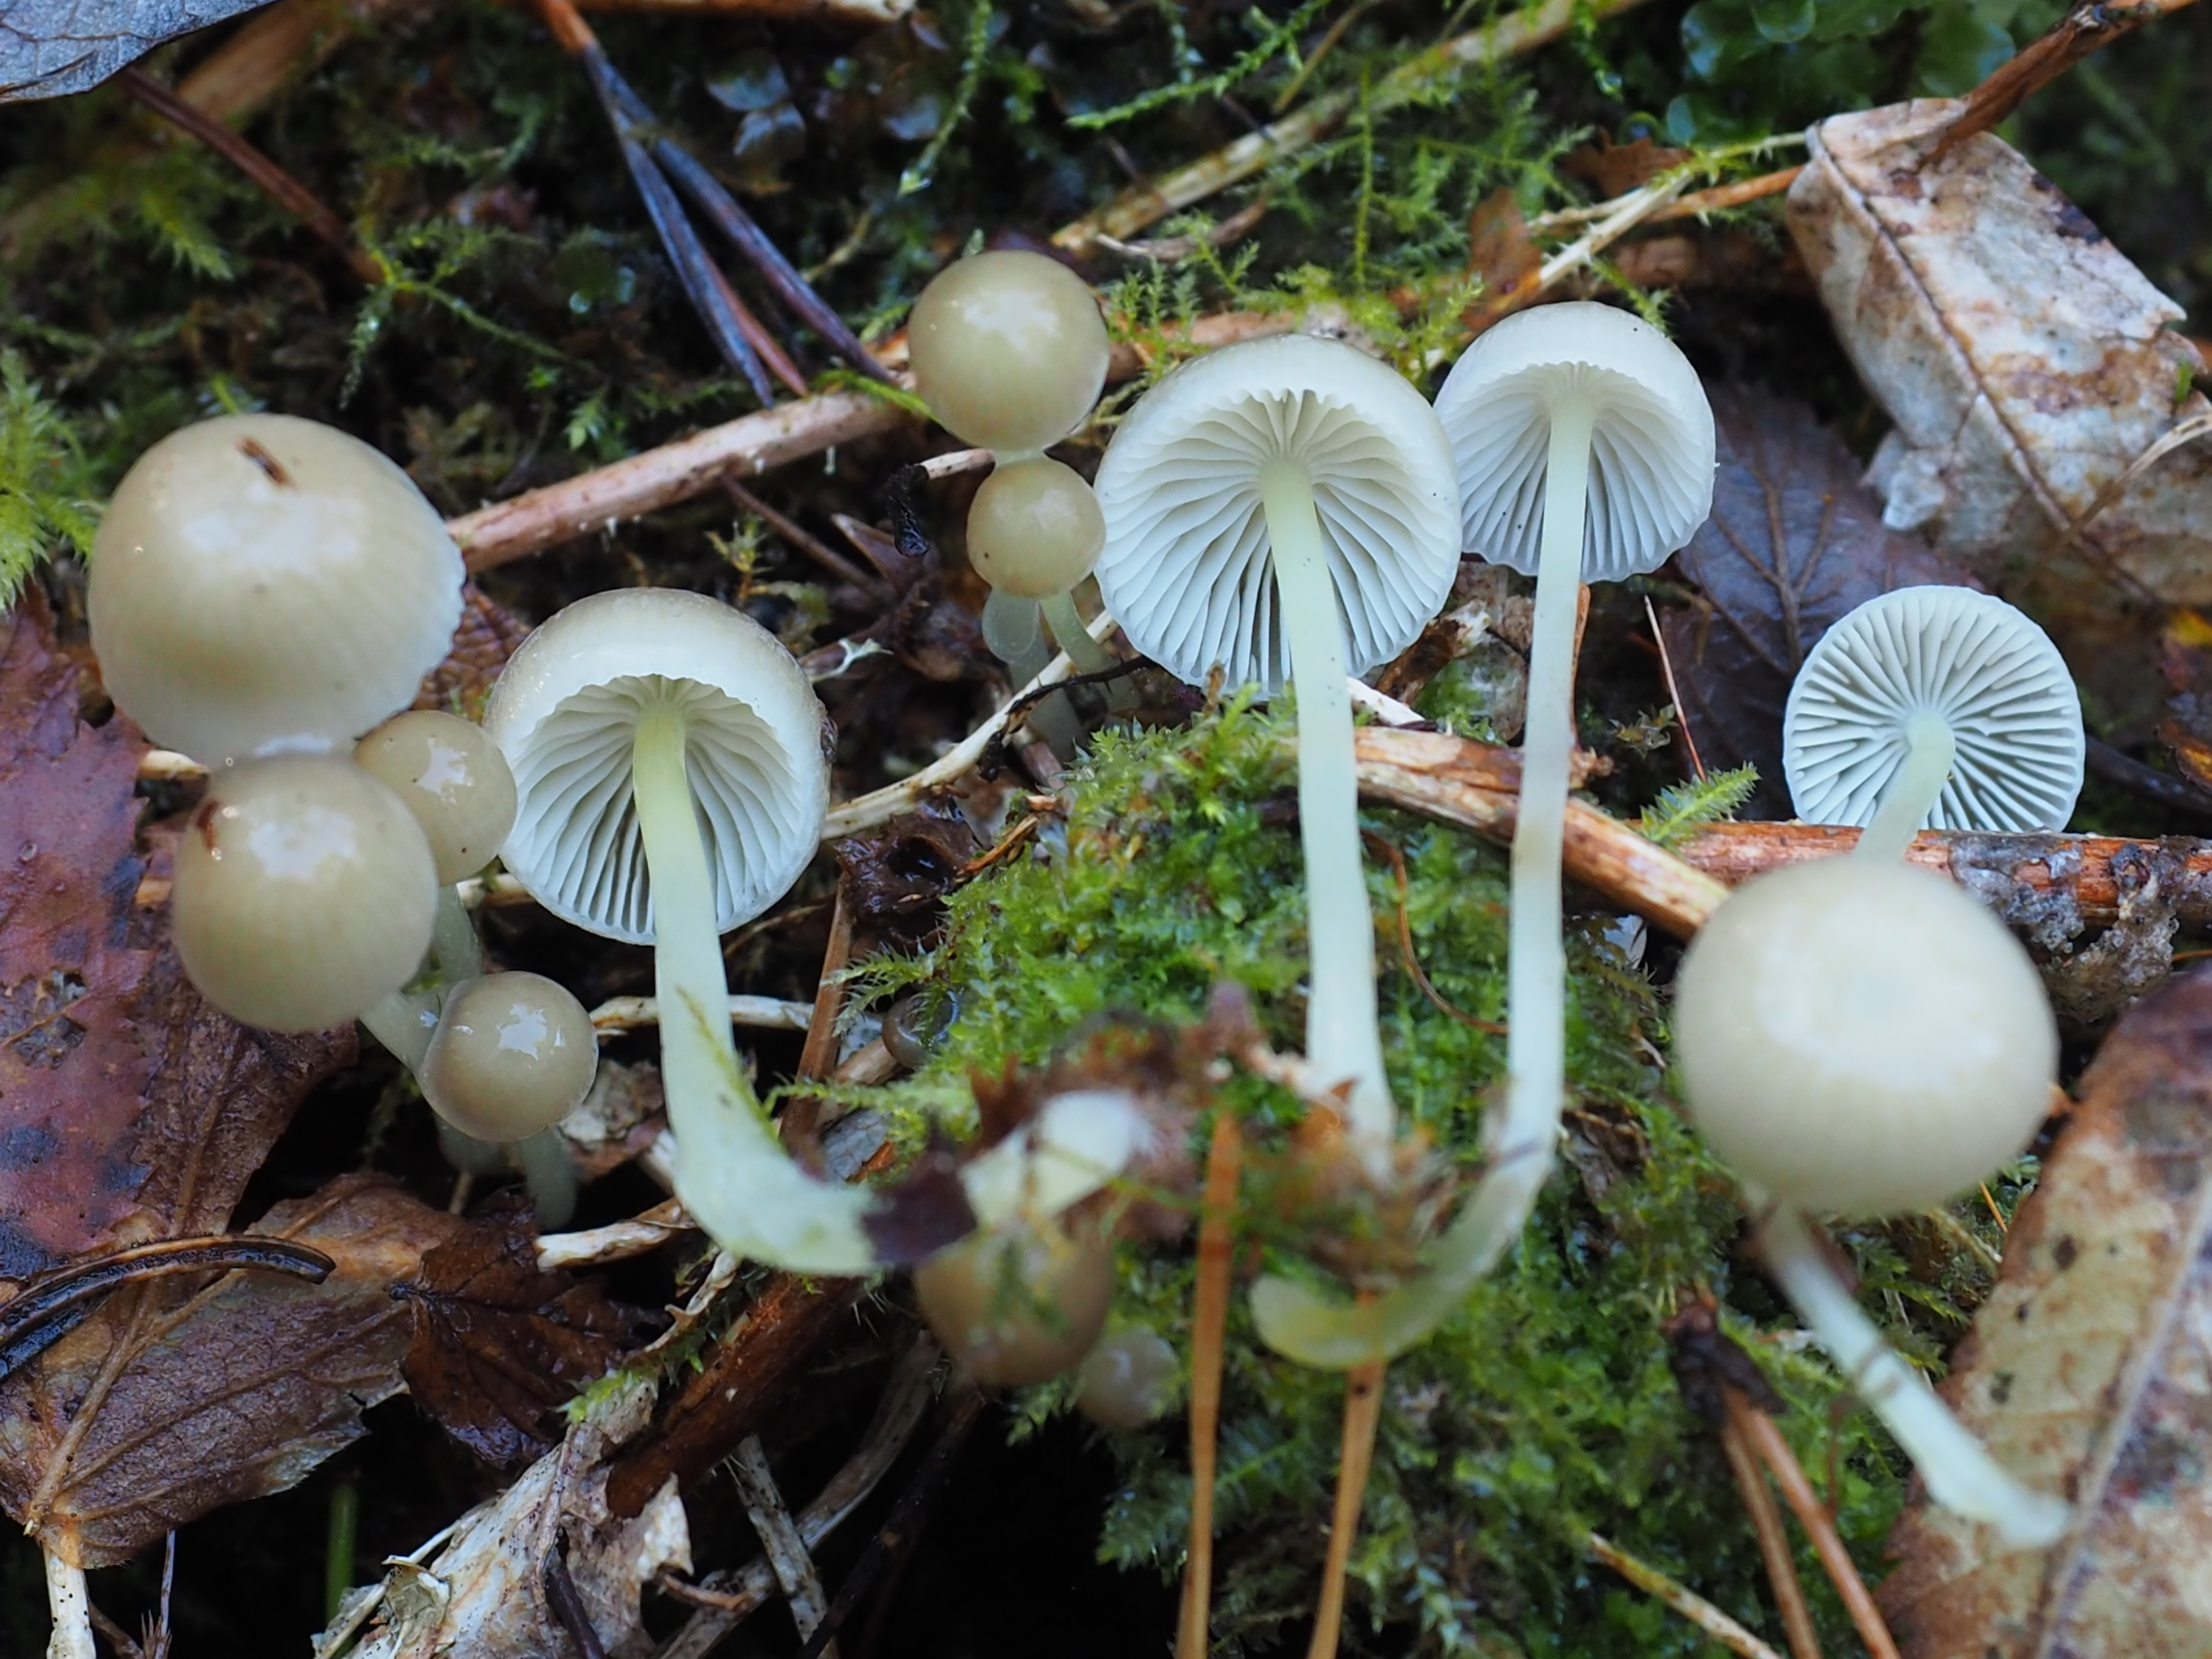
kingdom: Fungi
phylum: Basidiomycota
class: Agaricomycetes
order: Agaricales
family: Mycenaceae
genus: Mycena
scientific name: Mycena vulgaris
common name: Vulgar bonnet
